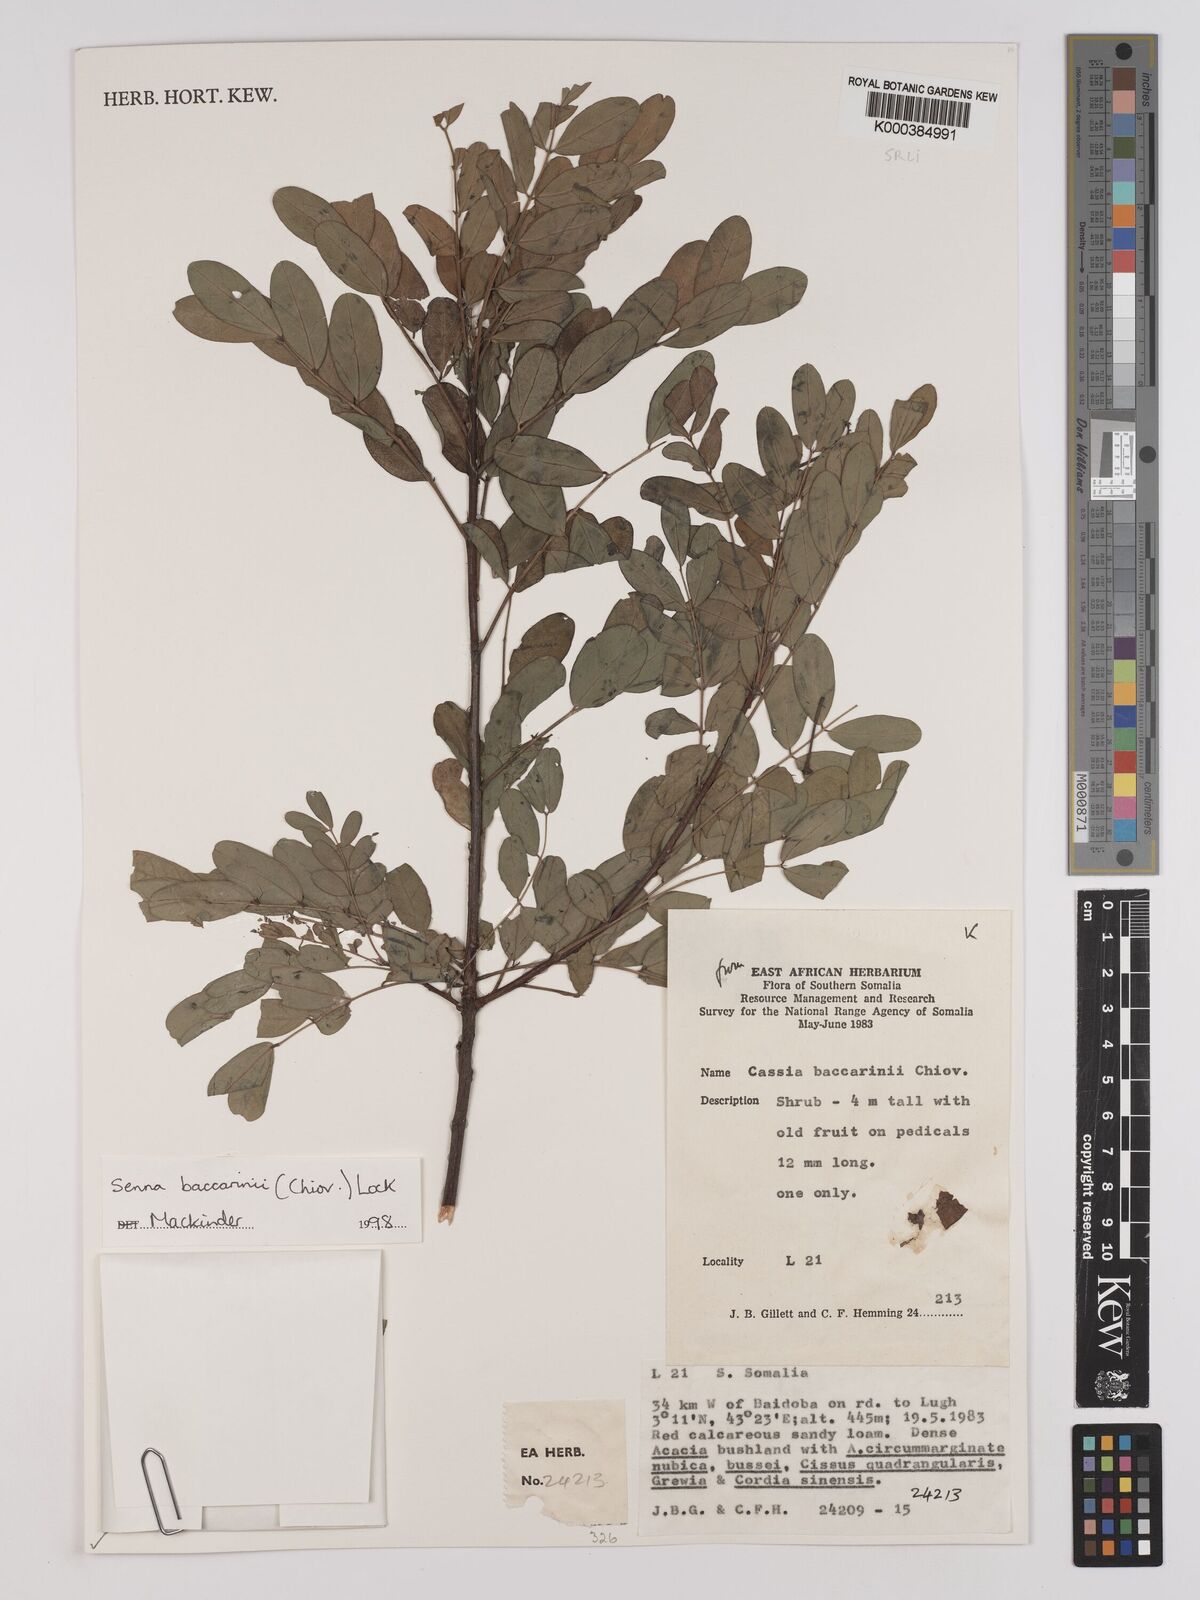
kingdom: Plantae
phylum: Tracheophyta
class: Magnoliopsida
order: Fabales
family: Fabaceae
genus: Senna
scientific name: Senna baccarinii
